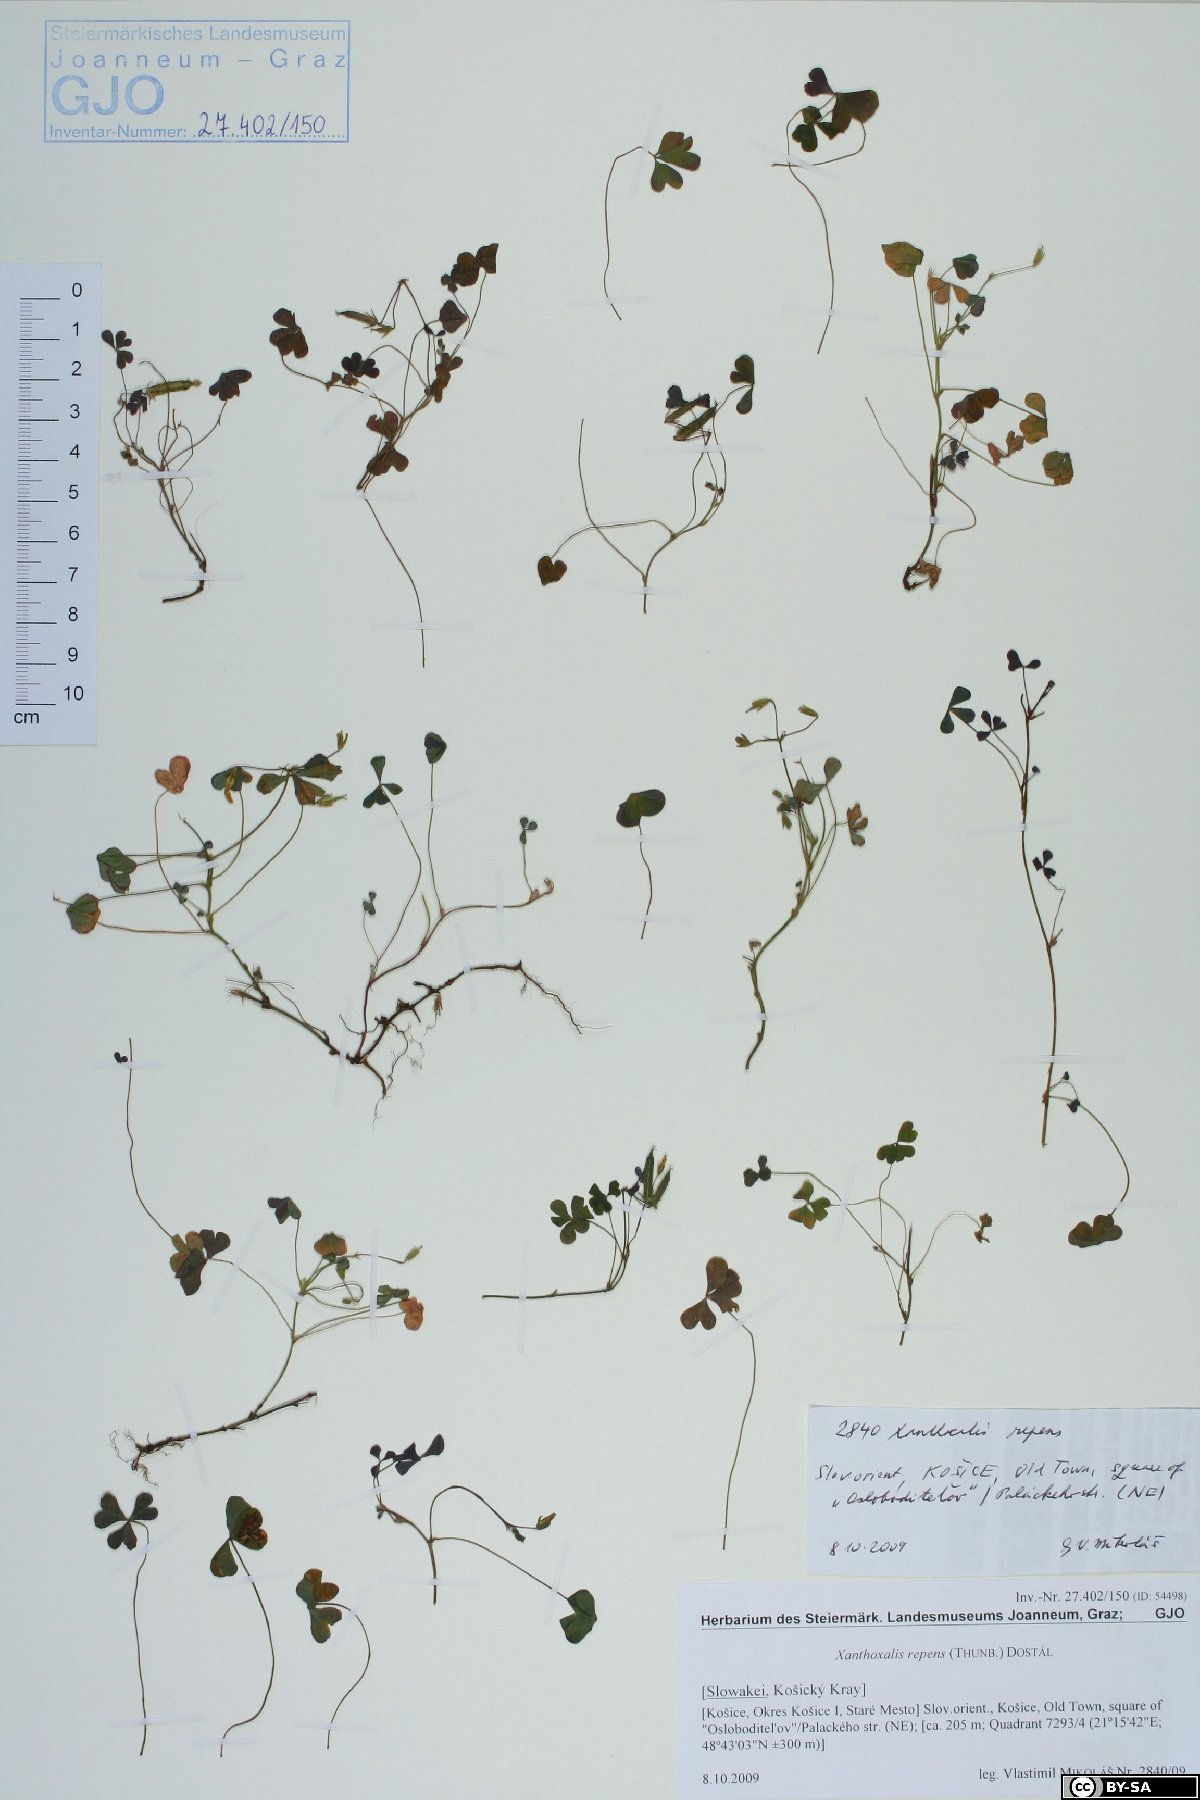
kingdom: Plantae
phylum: Tracheophyta
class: Magnoliopsida
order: Oxalidales
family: Oxalidaceae
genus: Oxalis
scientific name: Oxalis corniculata
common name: Procumbent yellow-sorrel
